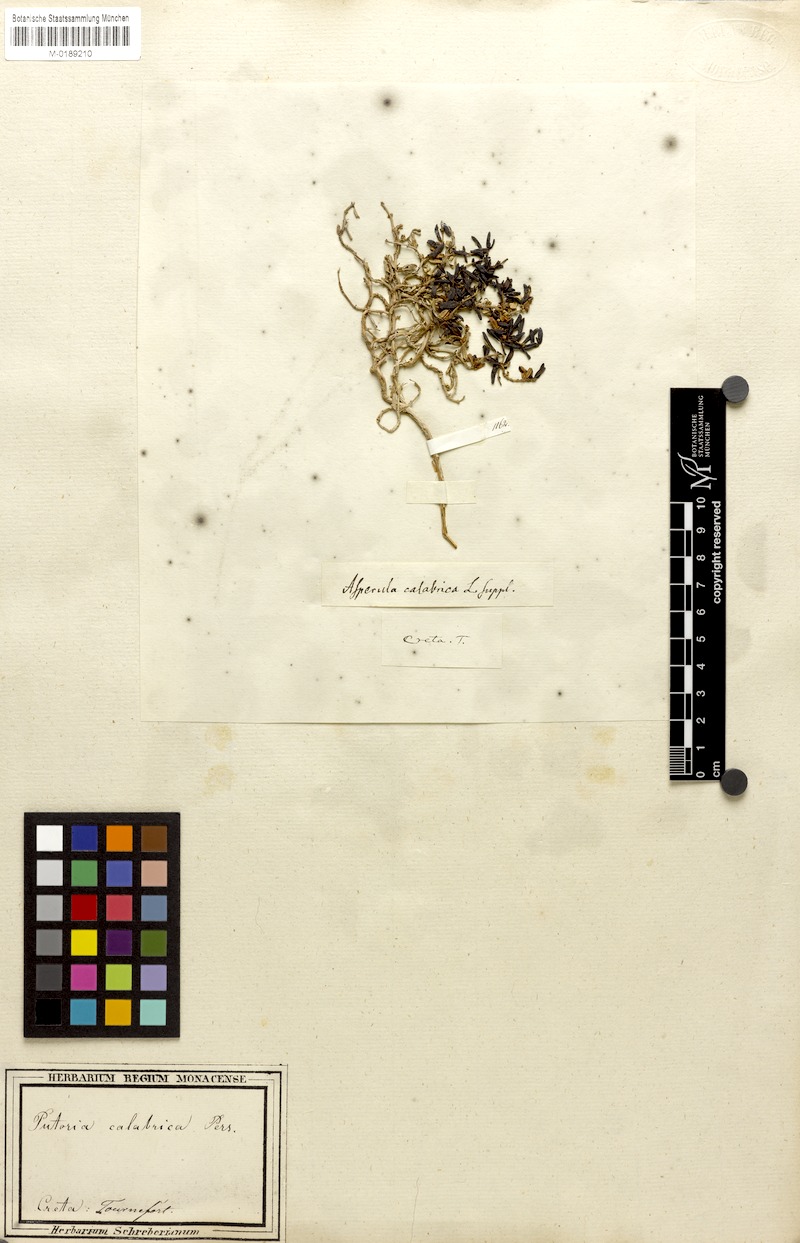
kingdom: Plantae
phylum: Tracheophyta
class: Magnoliopsida
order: Gentianales
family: Rubiaceae
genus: Plocama
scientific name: Plocama calabrica
